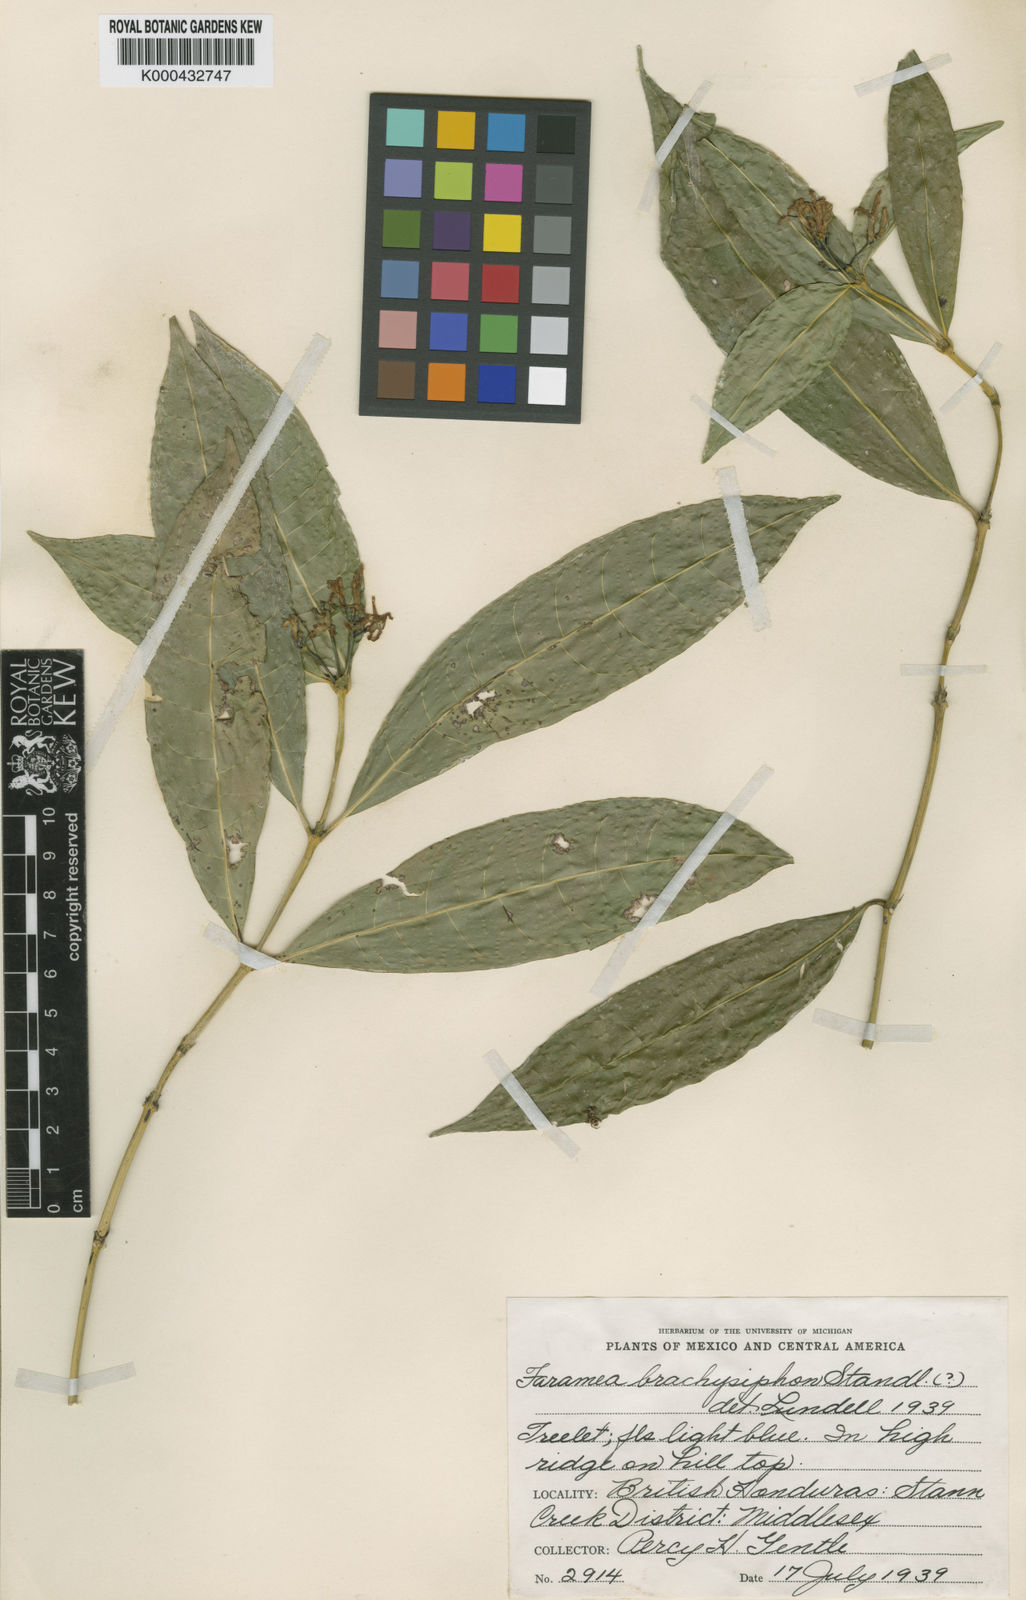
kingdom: Plantae
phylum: Tracheophyta
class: Magnoliopsida
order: Gentianales
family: Rubiaceae
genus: Faramea
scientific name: Faramea brachysiphon
